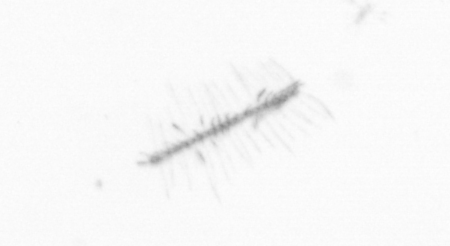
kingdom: Chromista
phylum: Ochrophyta
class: Bacillariophyceae
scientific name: Bacillariophyceae
